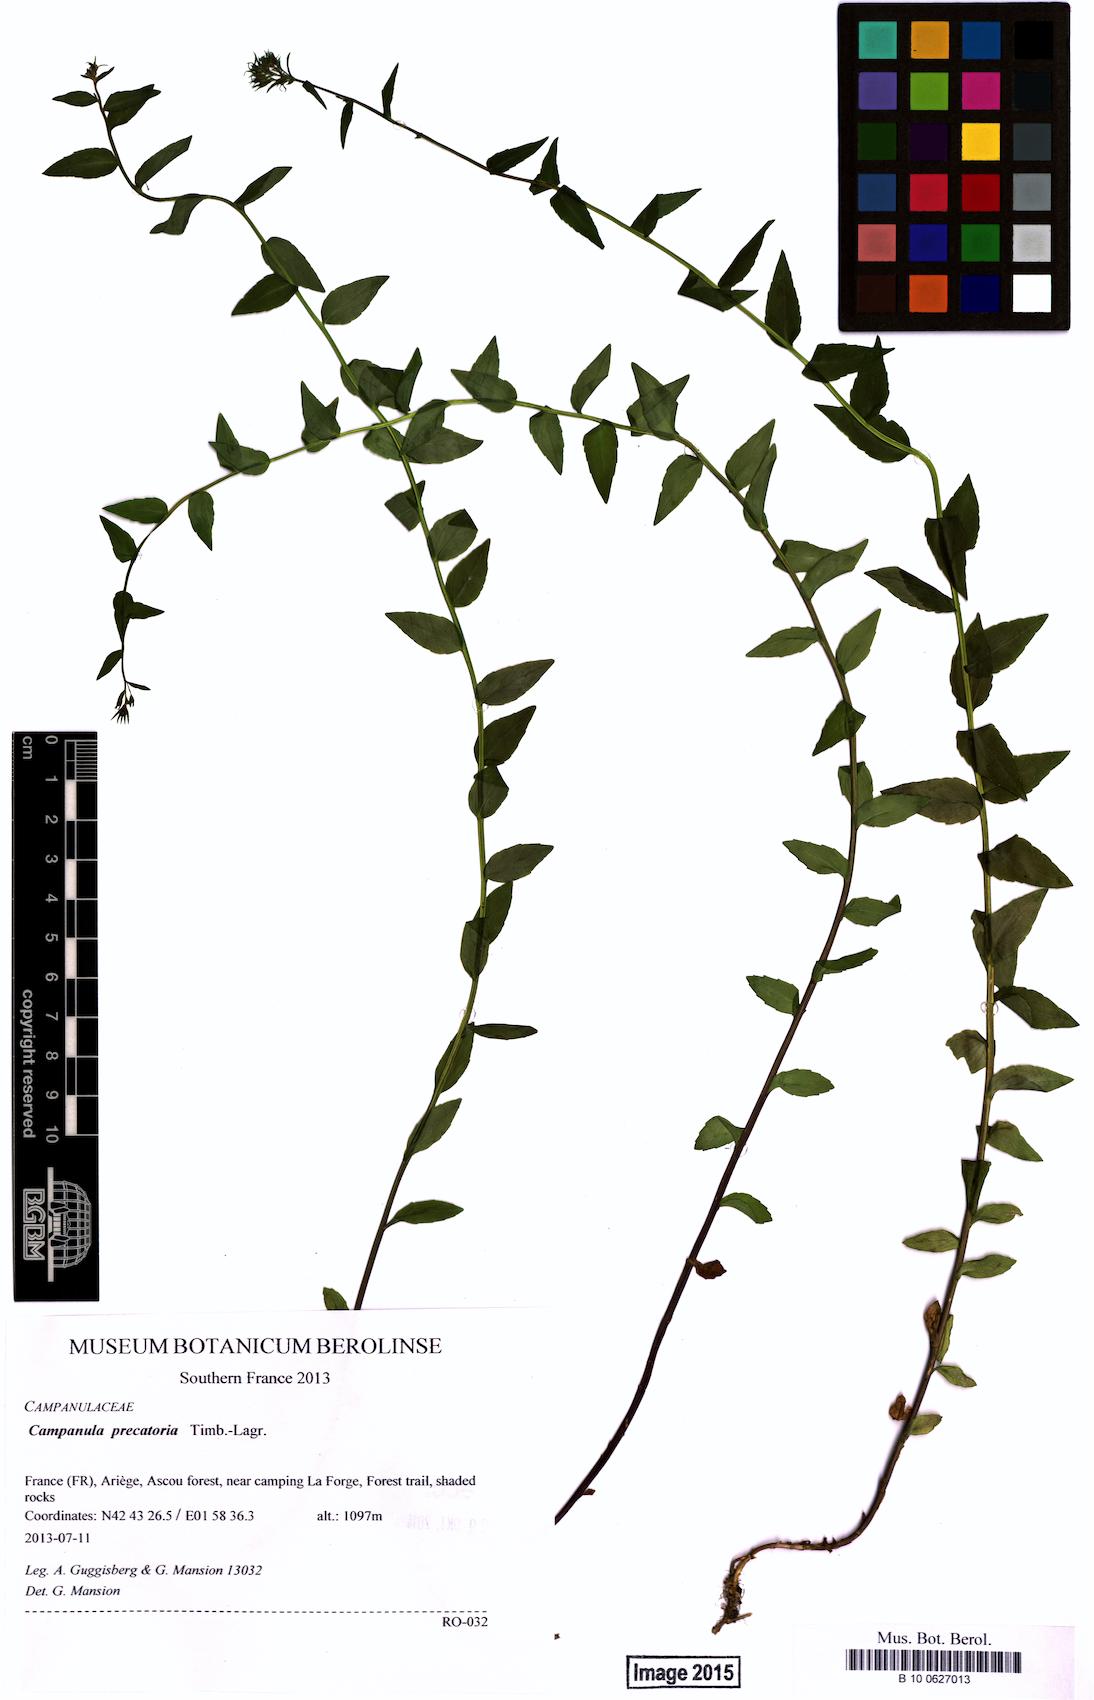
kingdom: Plantae
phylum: Tracheophyta
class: Magnoliopsida
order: Asterales
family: Campanulaceae
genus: Campanula
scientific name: Campanula precatoria
